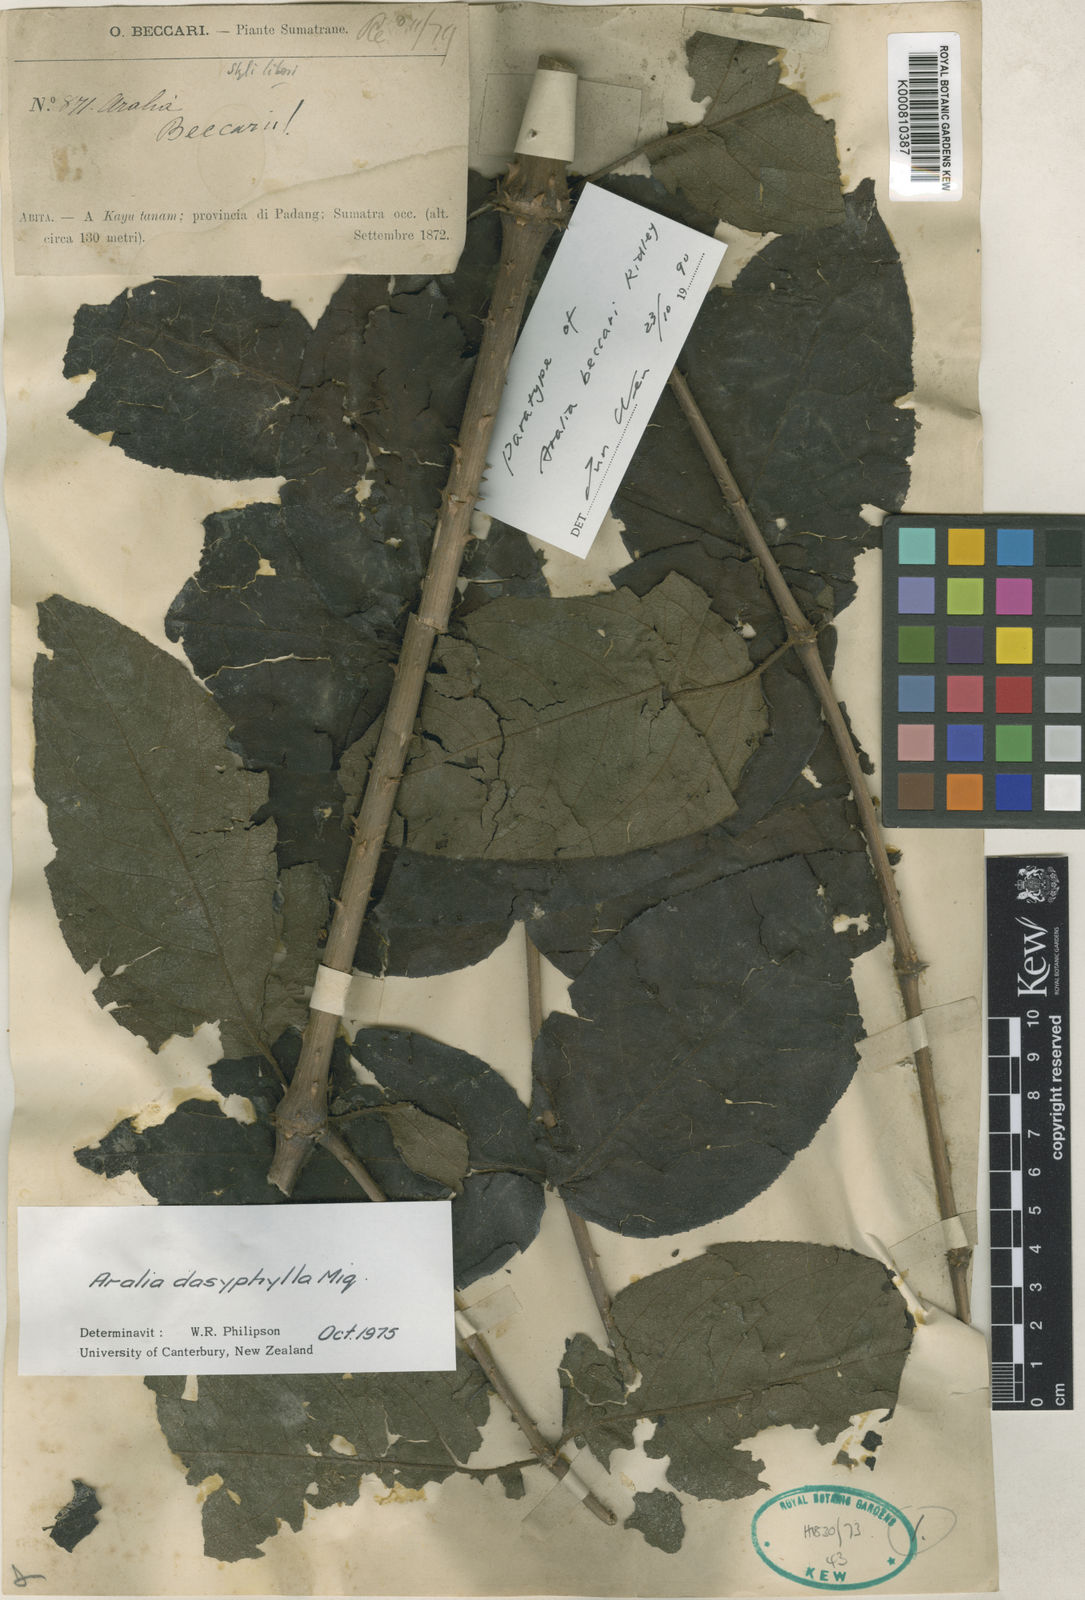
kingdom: Plantae
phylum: Tracheophyta
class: Magnoliopsida
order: Apiales
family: Araliaceae
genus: Aralia
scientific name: Aralia dasyphylla
